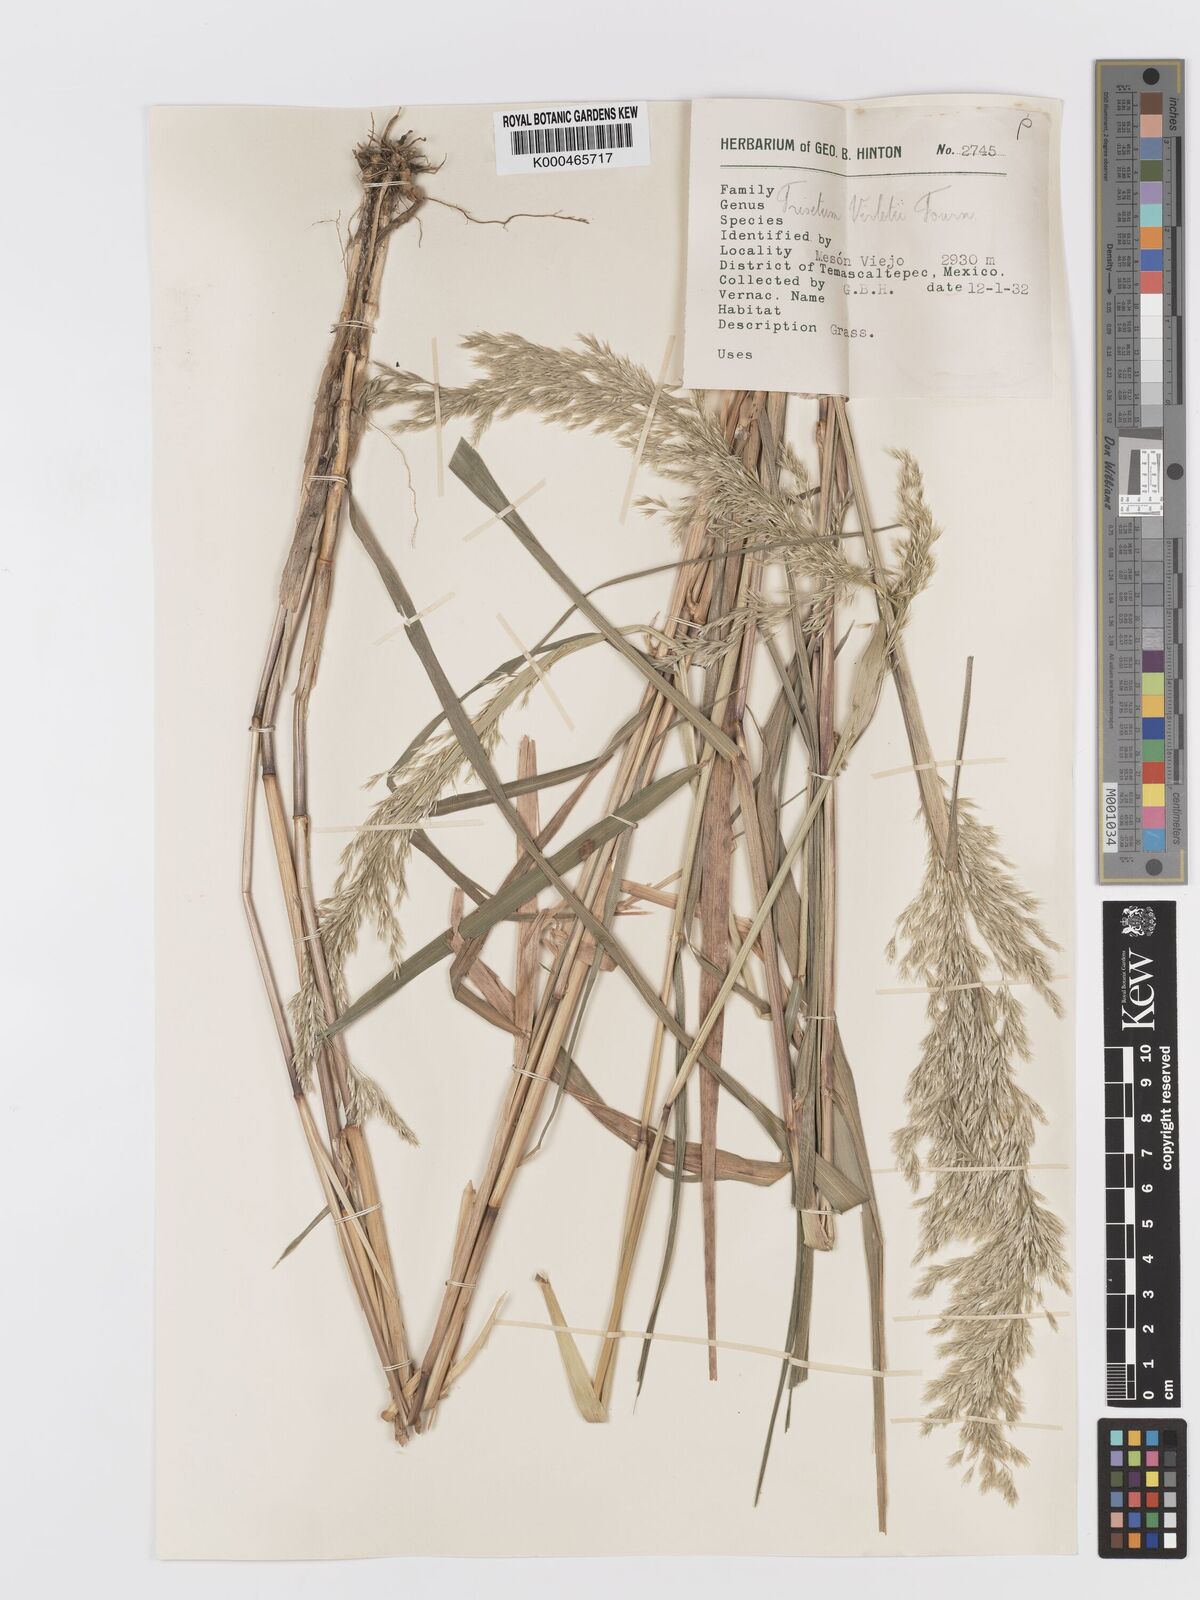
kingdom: Plantae
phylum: Tracheophyta
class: Liliopsida
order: Poales
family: Poaceae
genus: Peyritschia
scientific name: Peyritschia virletii
